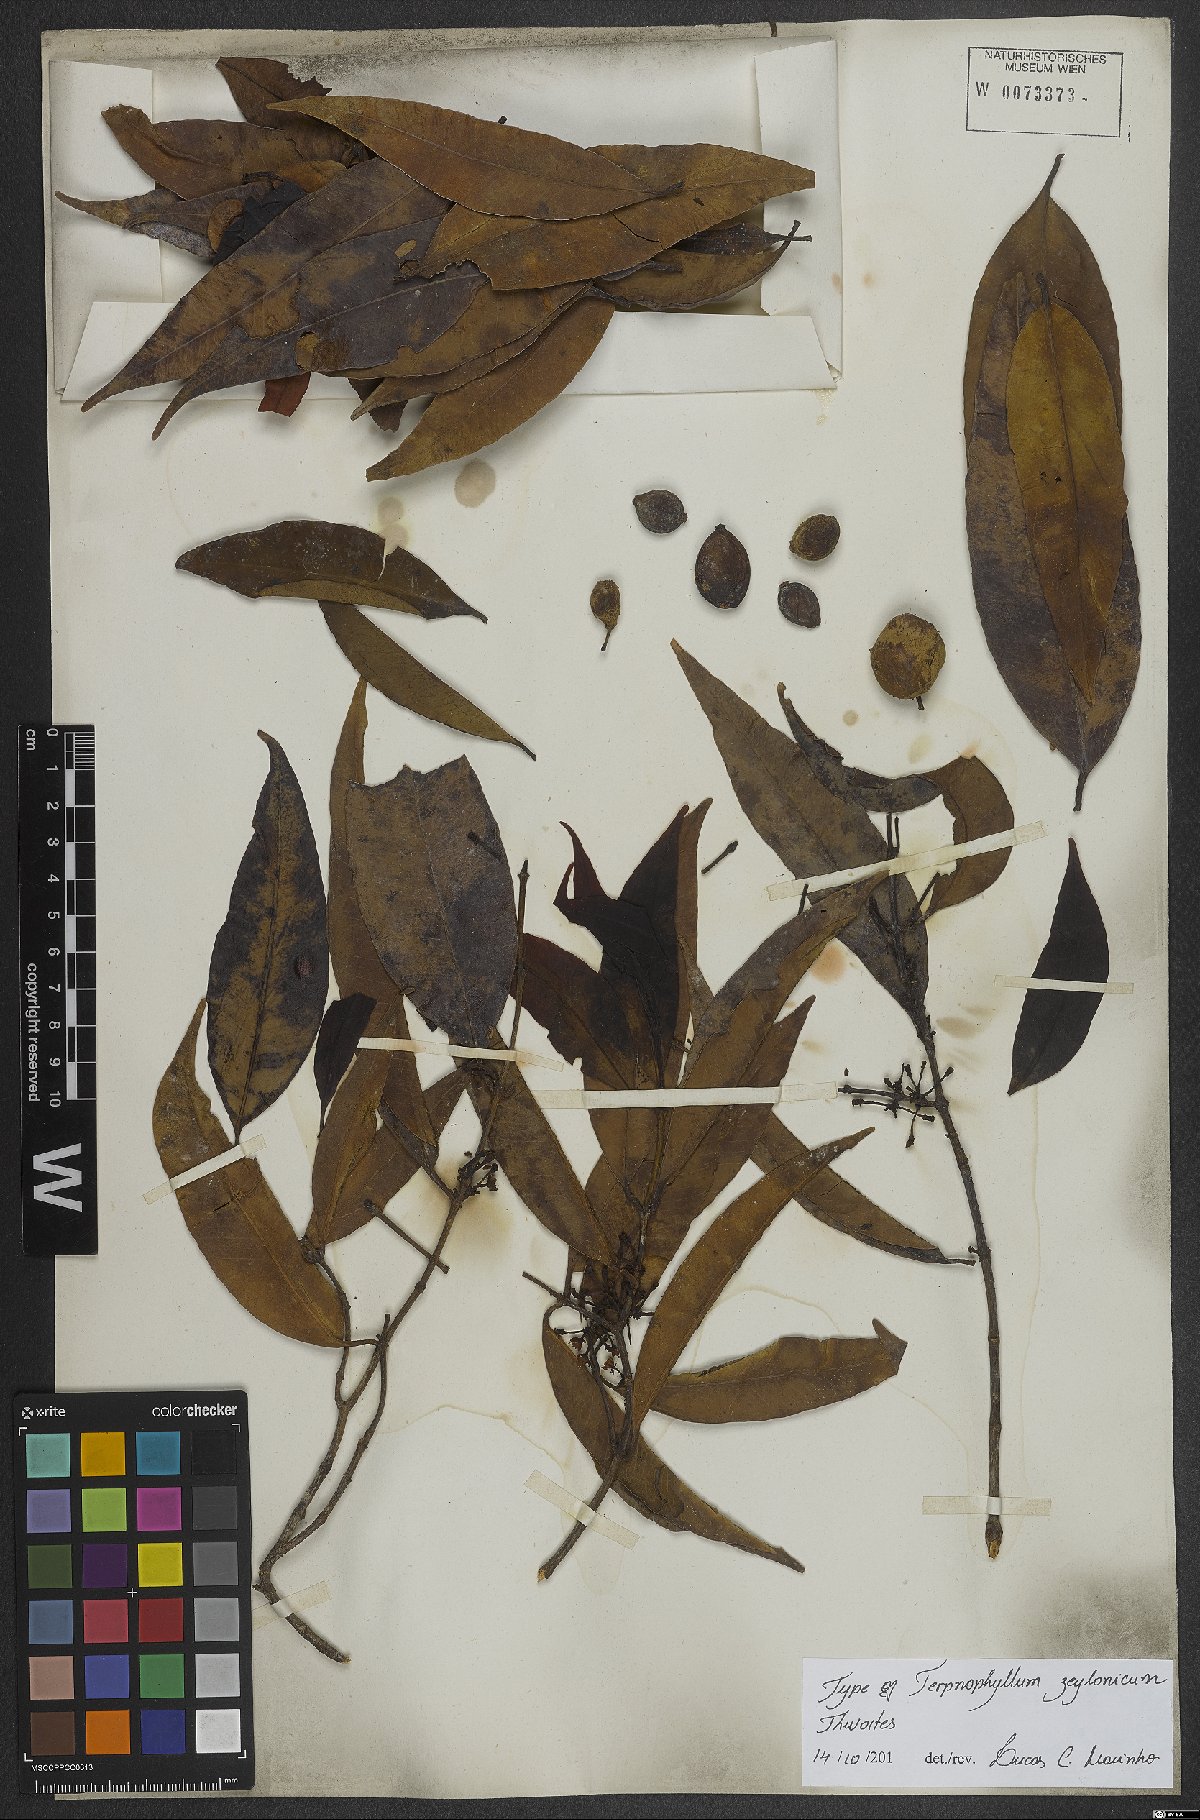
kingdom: Plantae
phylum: Tracheophyta
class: Magnoliopsida
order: Malpighiales
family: Clusiaceae
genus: Garcinia
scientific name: Garcinia terpnophylla
